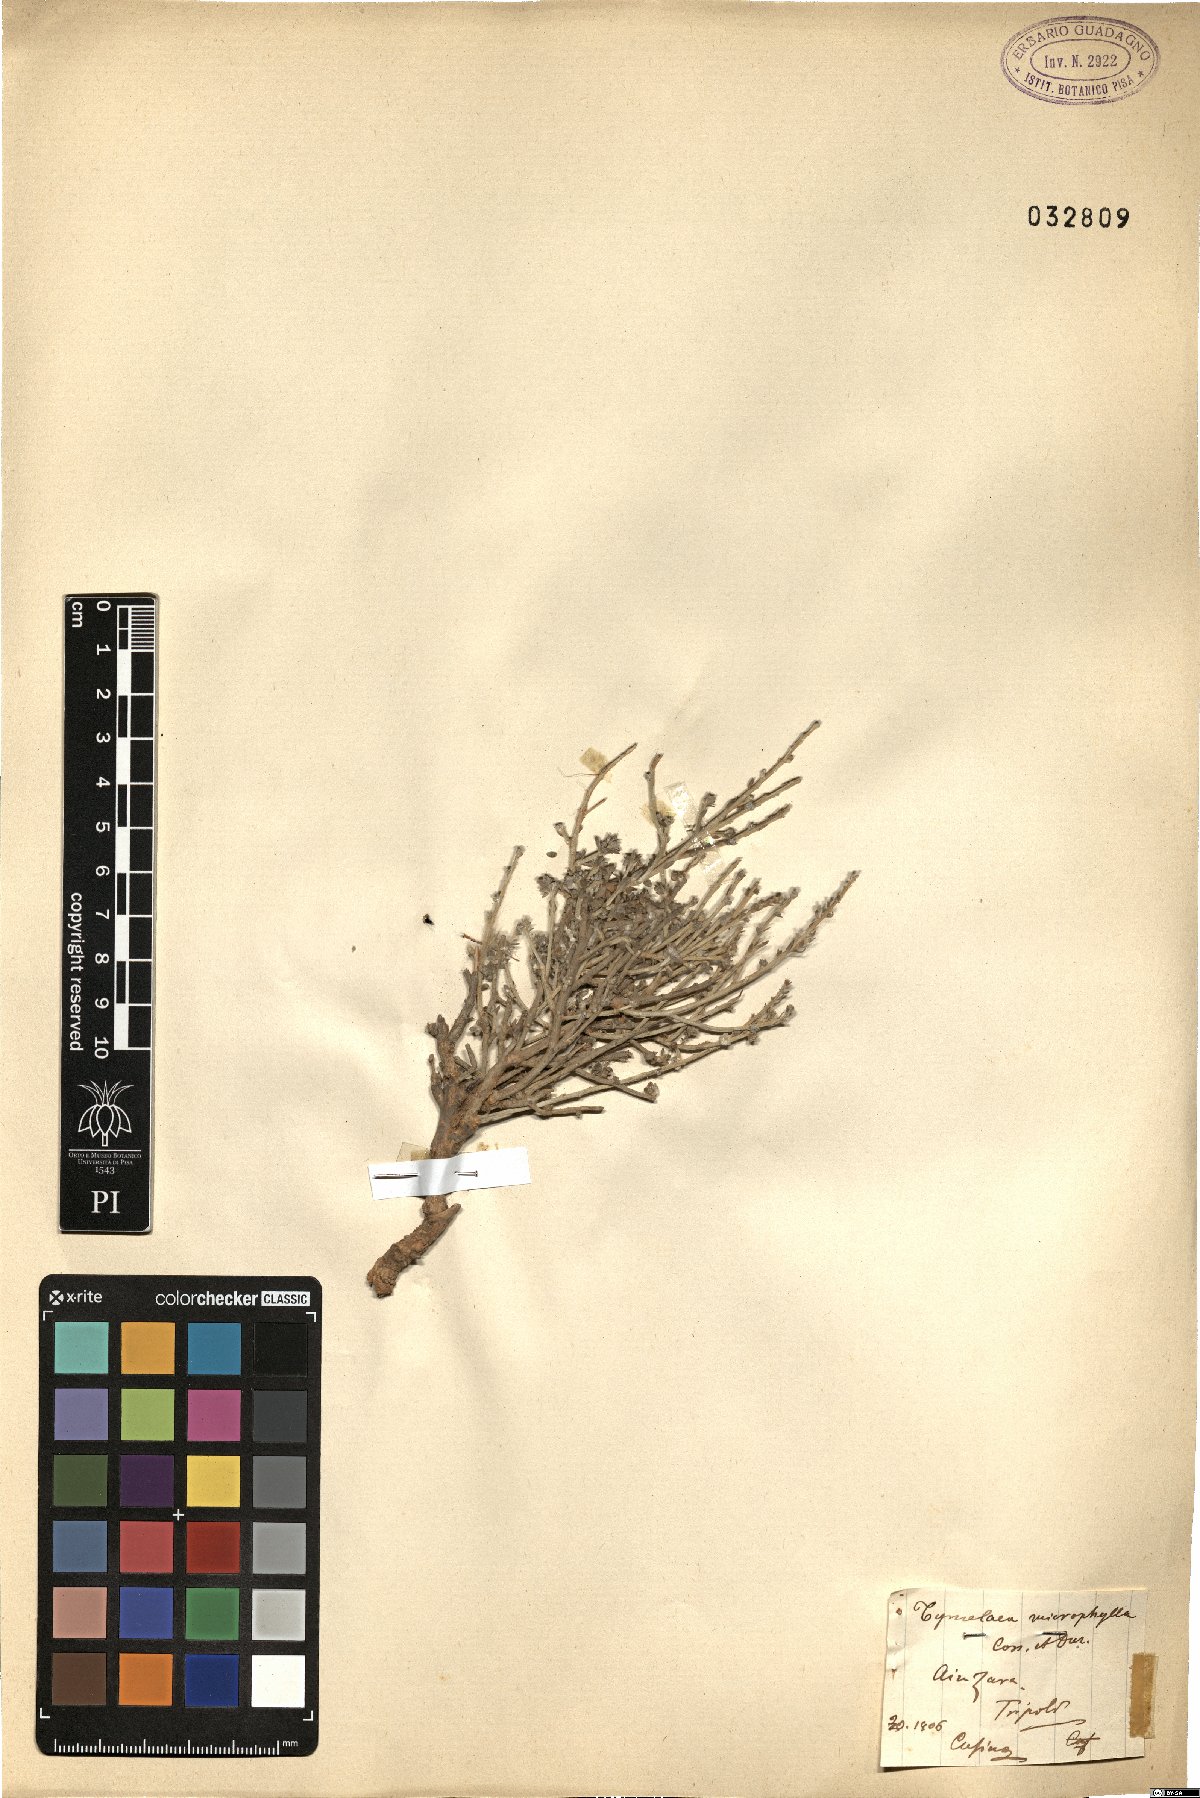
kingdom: Plantae
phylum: Tracheophyta
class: Magnoliopsida
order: Malvales
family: Thymelaeaceae
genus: Thymelaea
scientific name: Thymelaea microphylla
